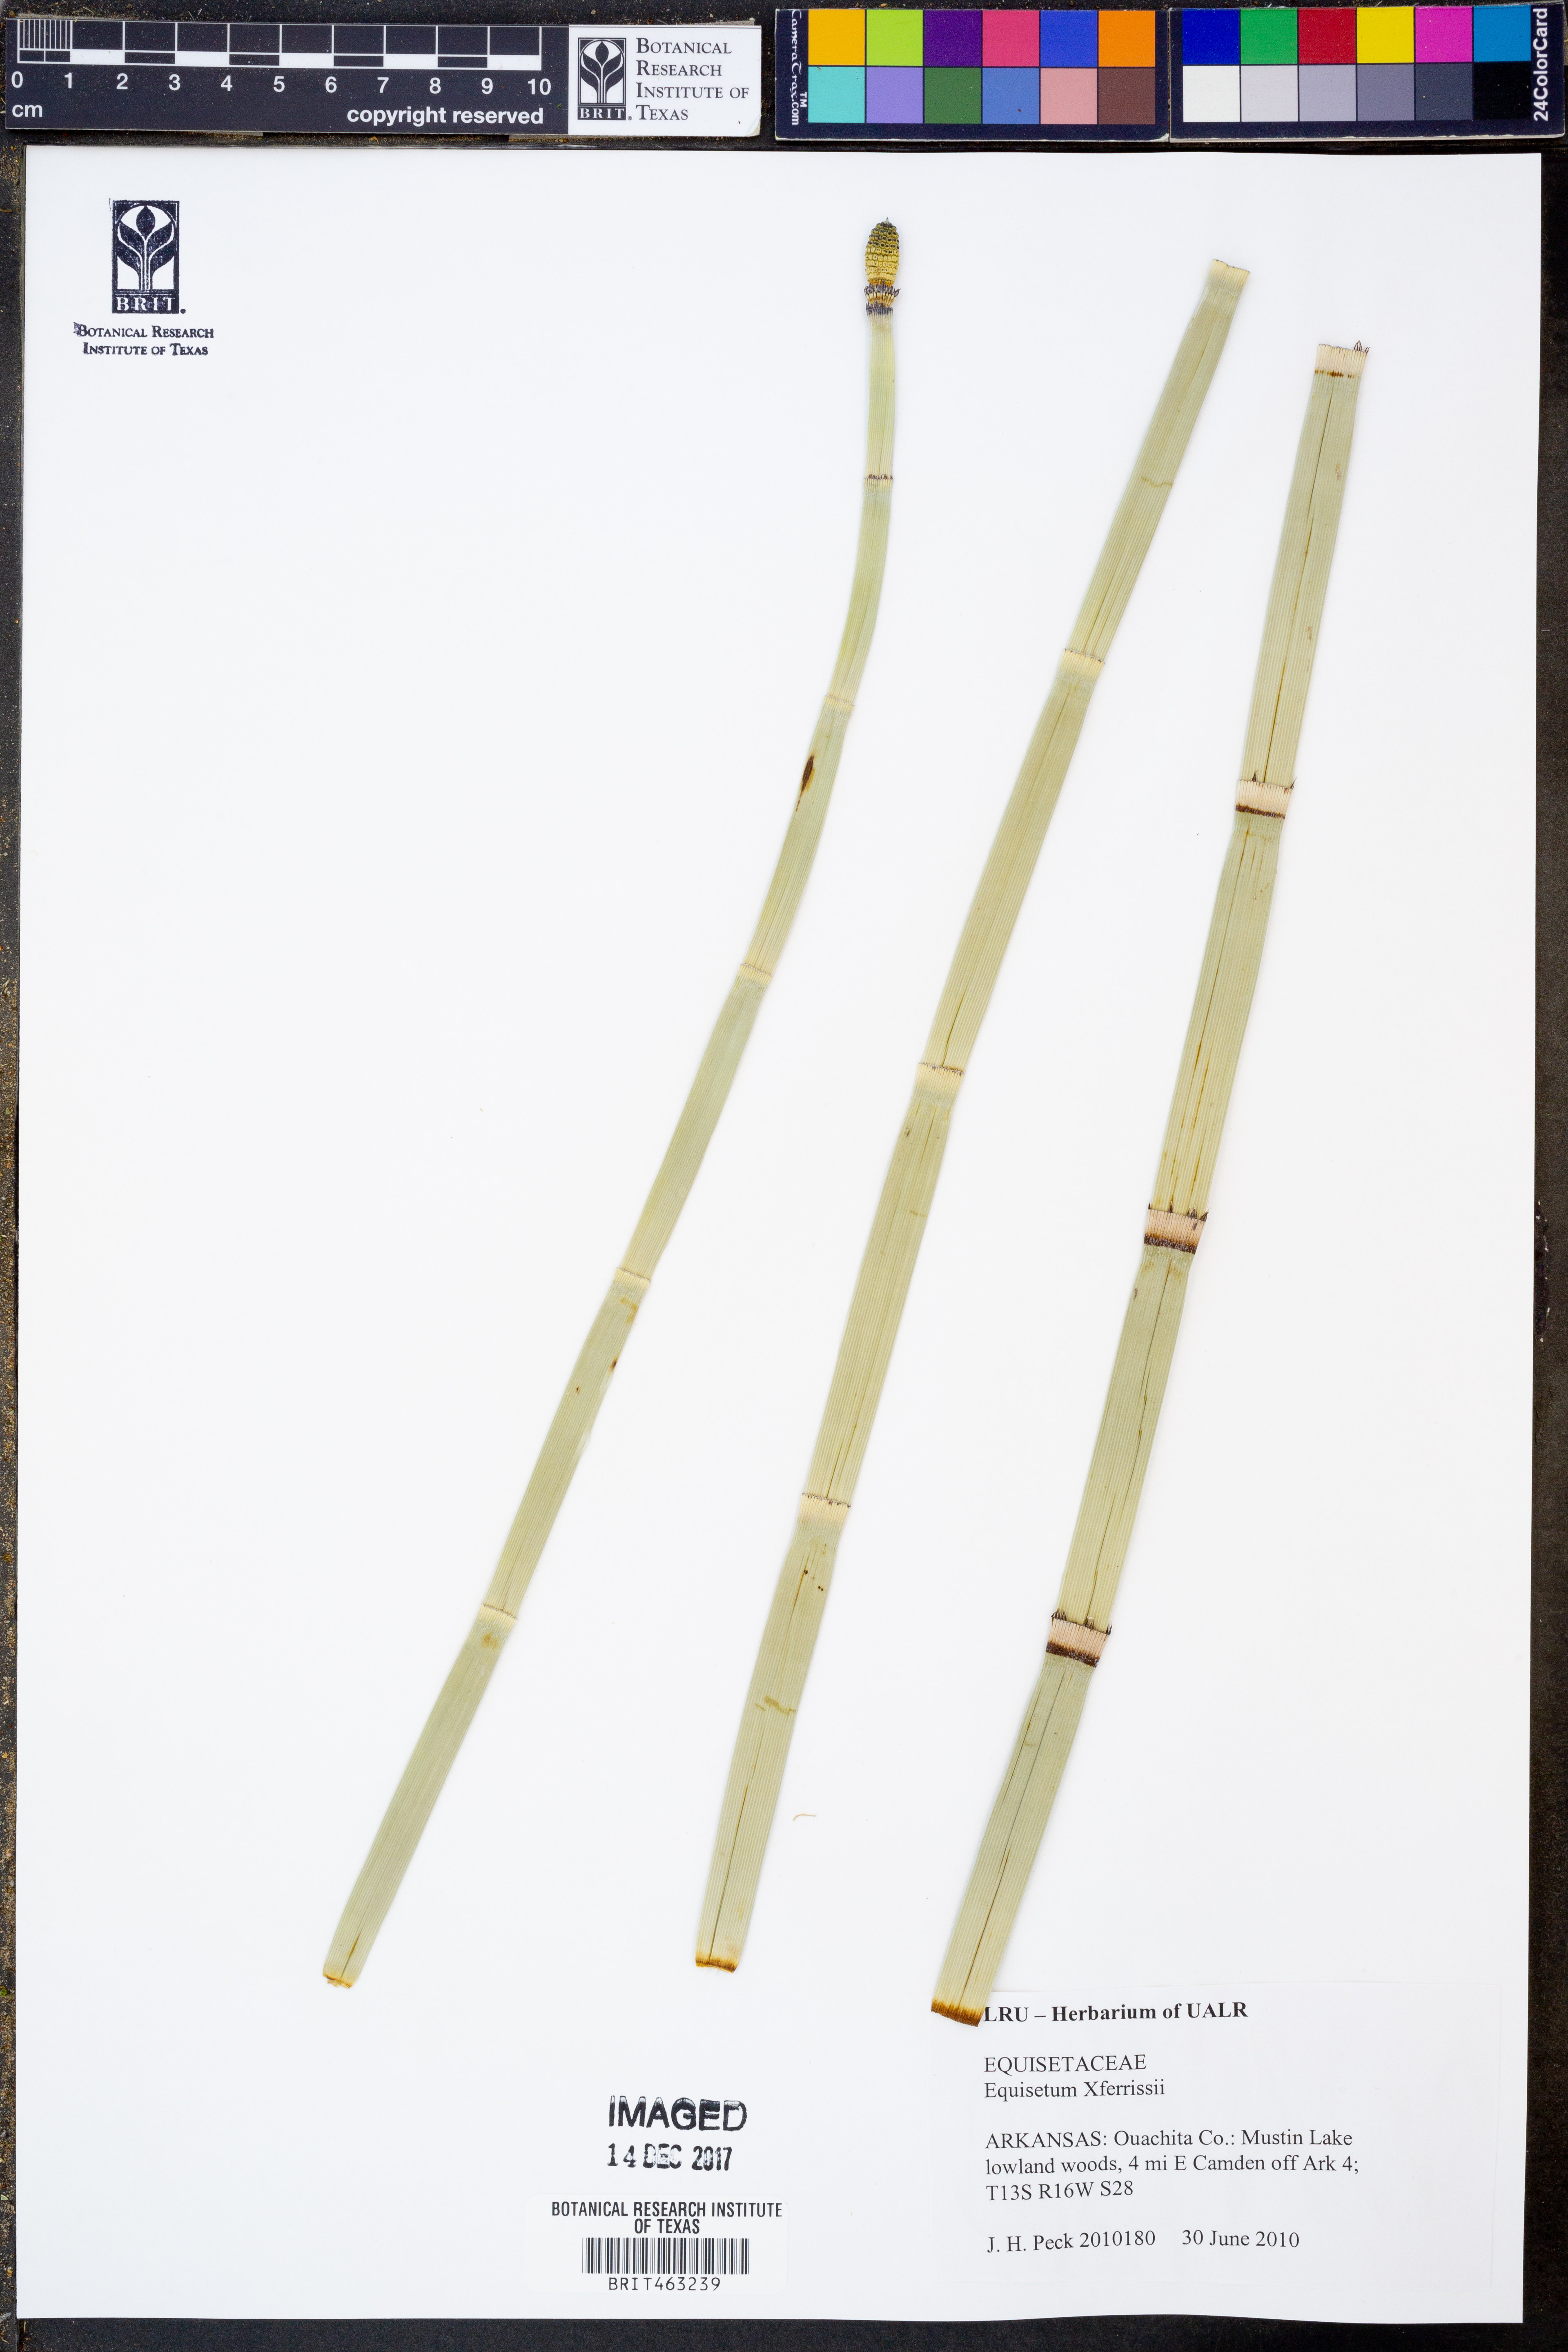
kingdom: Plantae
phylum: Tracheophyta
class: Polypodiopsida
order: Equisetales
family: Equisetaceae
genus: Equisetum
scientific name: Equisetum ferrissii
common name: Ferriss' horsetail
